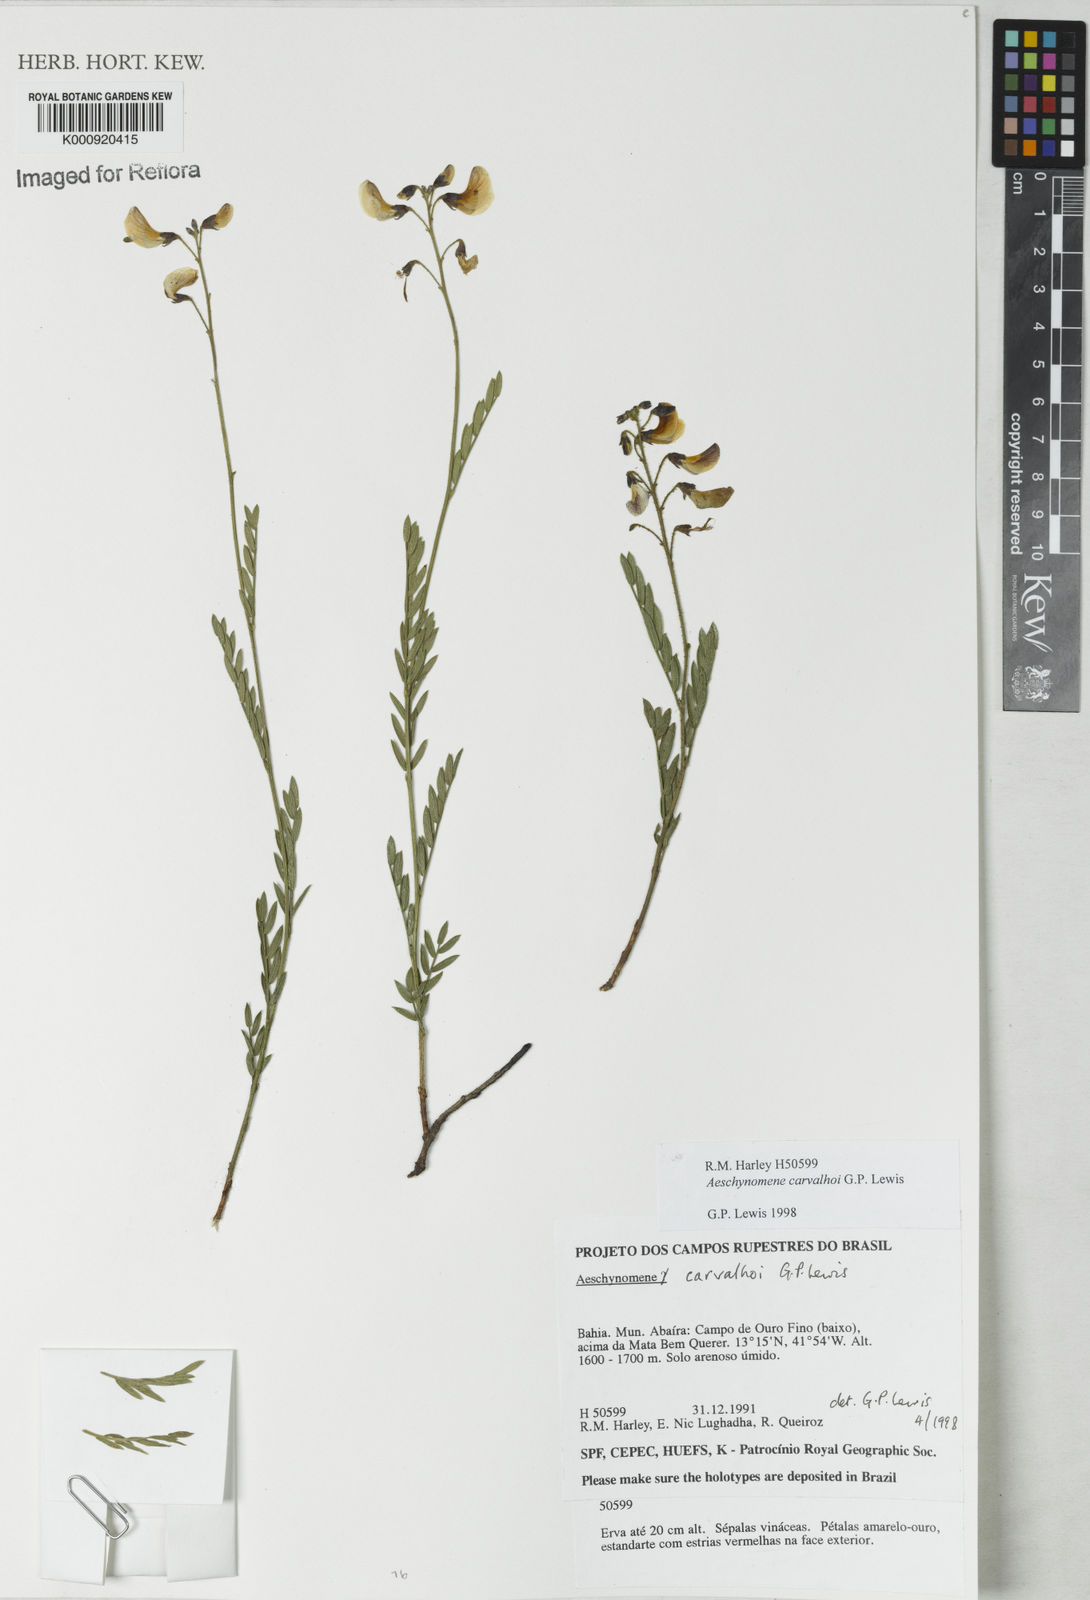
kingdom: Plantae
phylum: Tracheophyta
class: Magnoliopsida
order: Fabales
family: Fabaceae
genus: Ctenodon
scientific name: Ctenodon carvalhoi
